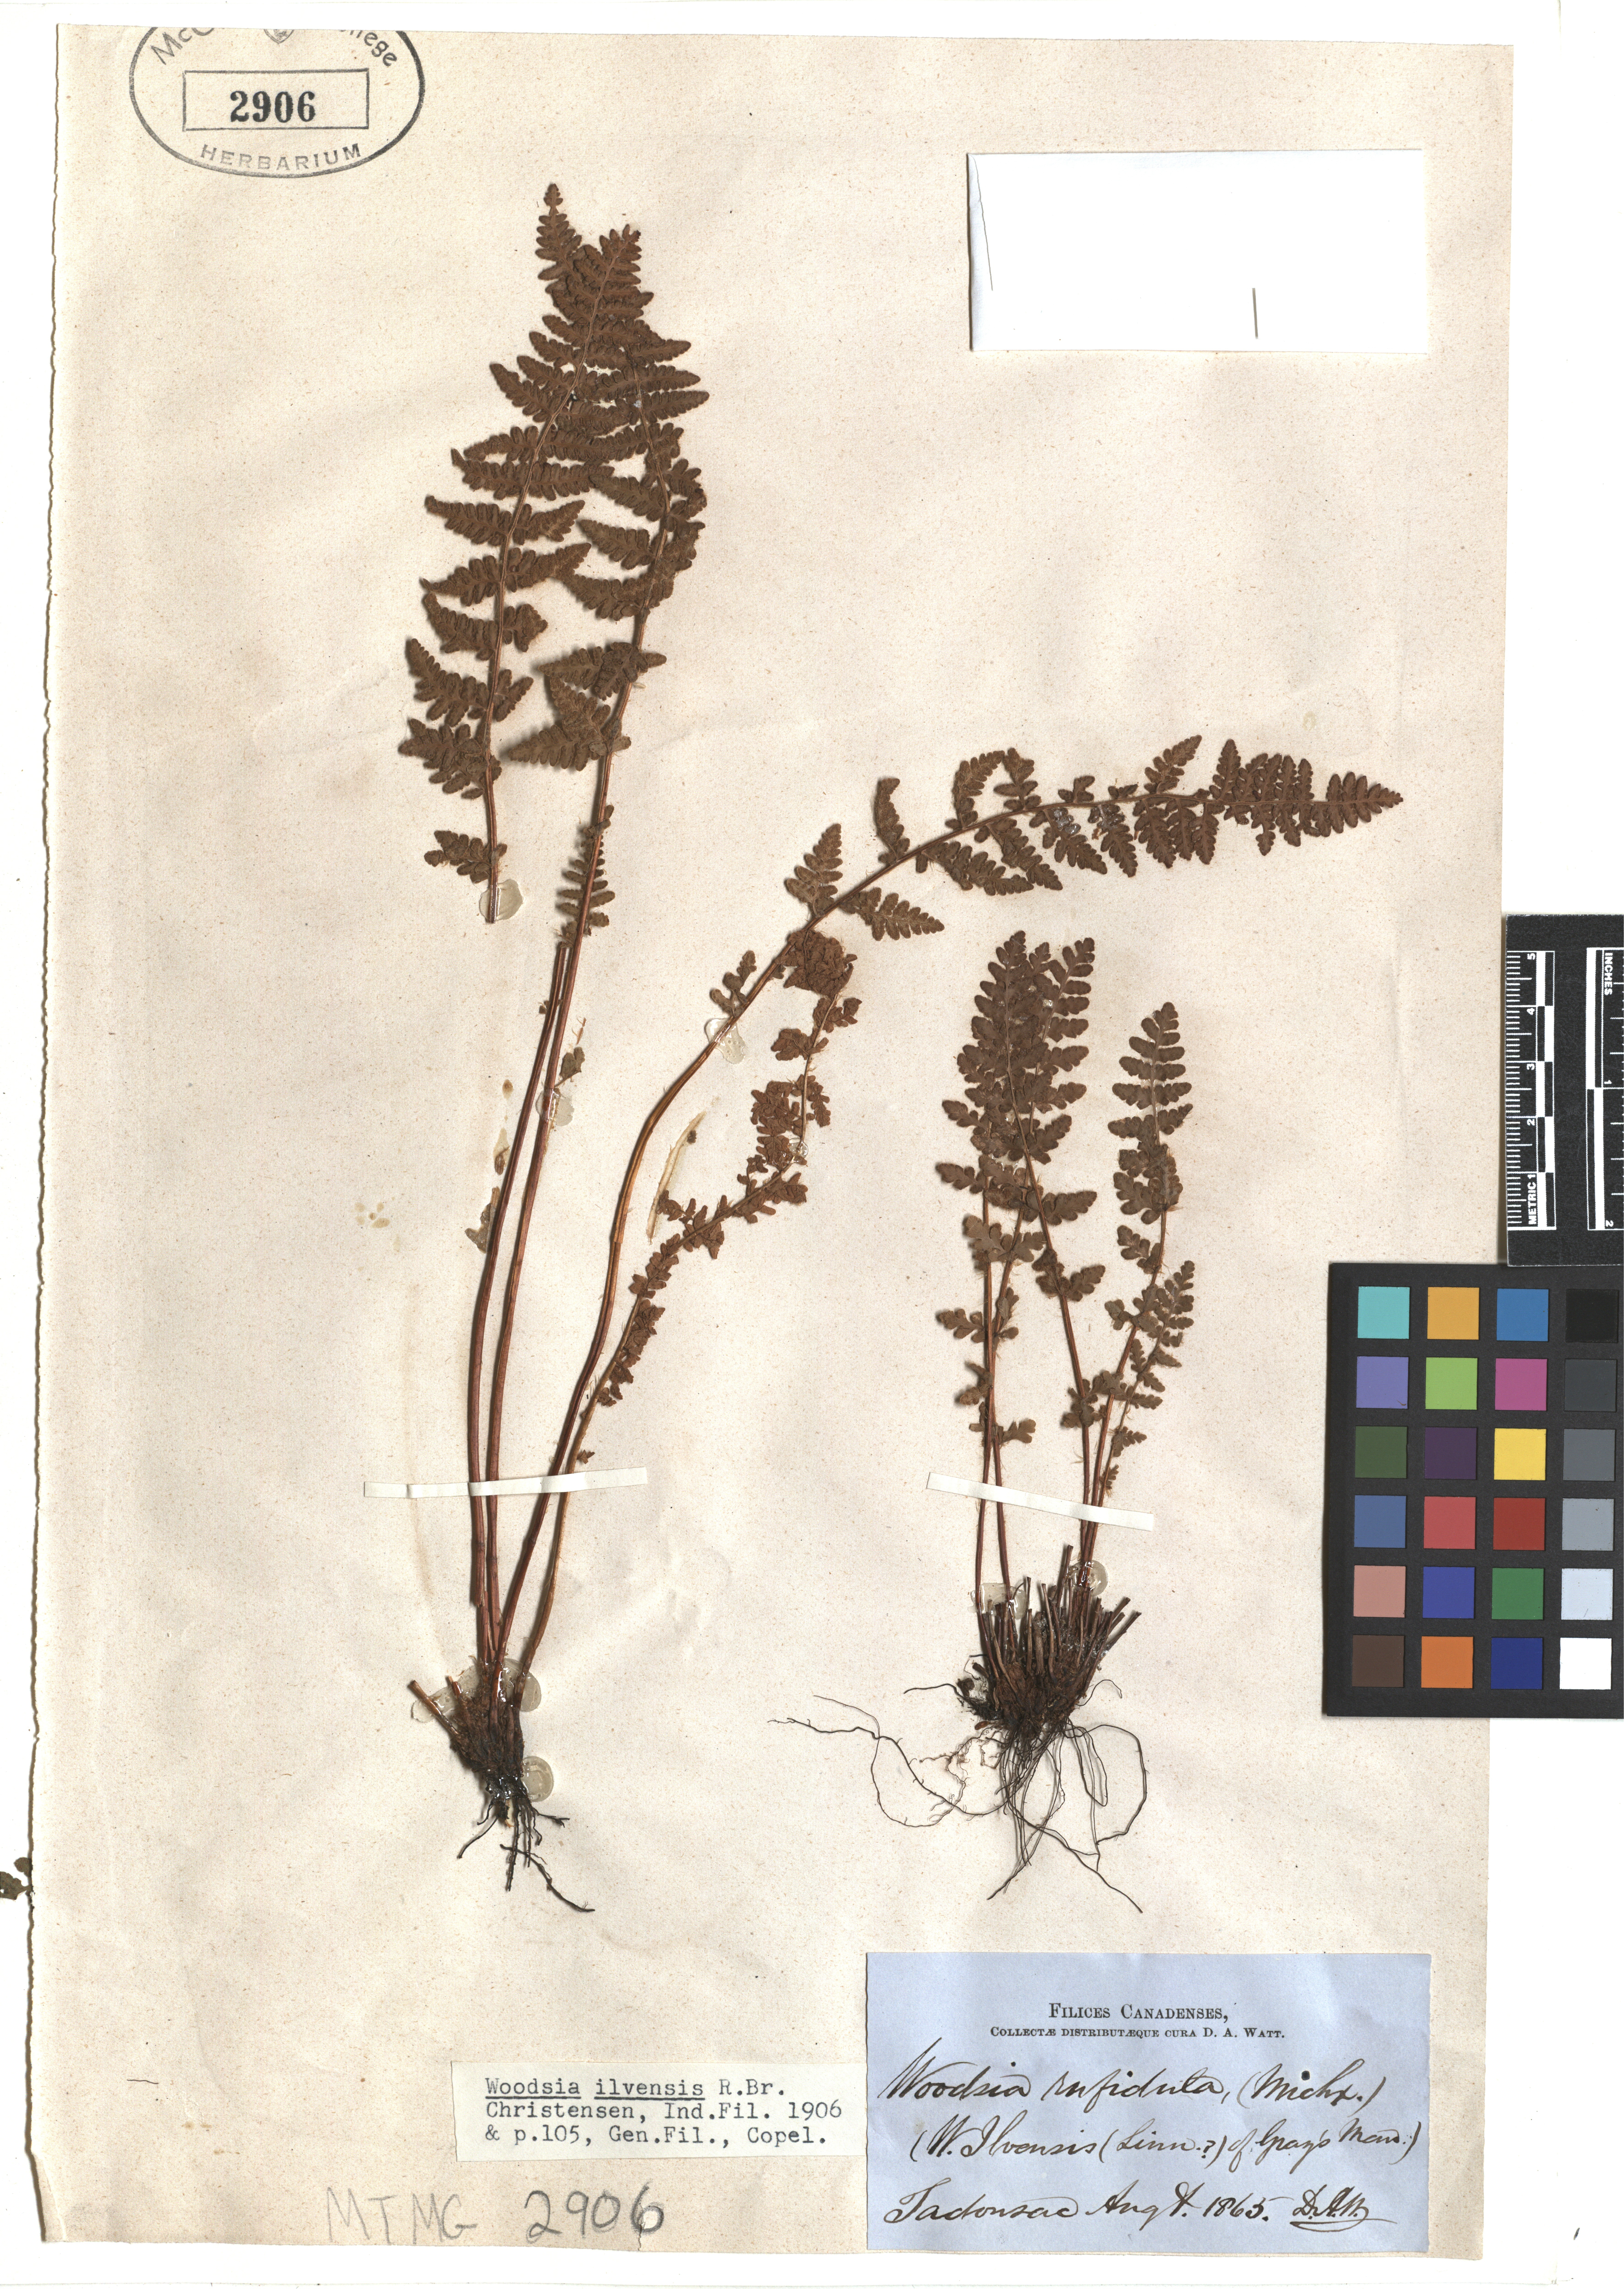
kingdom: Plantae
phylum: Tracheophyta
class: Polypodiopsida
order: Polypodiales
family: Woodsiaceae
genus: Woodsia
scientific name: Woodsia ilvensis
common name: Fragrant woodsia
